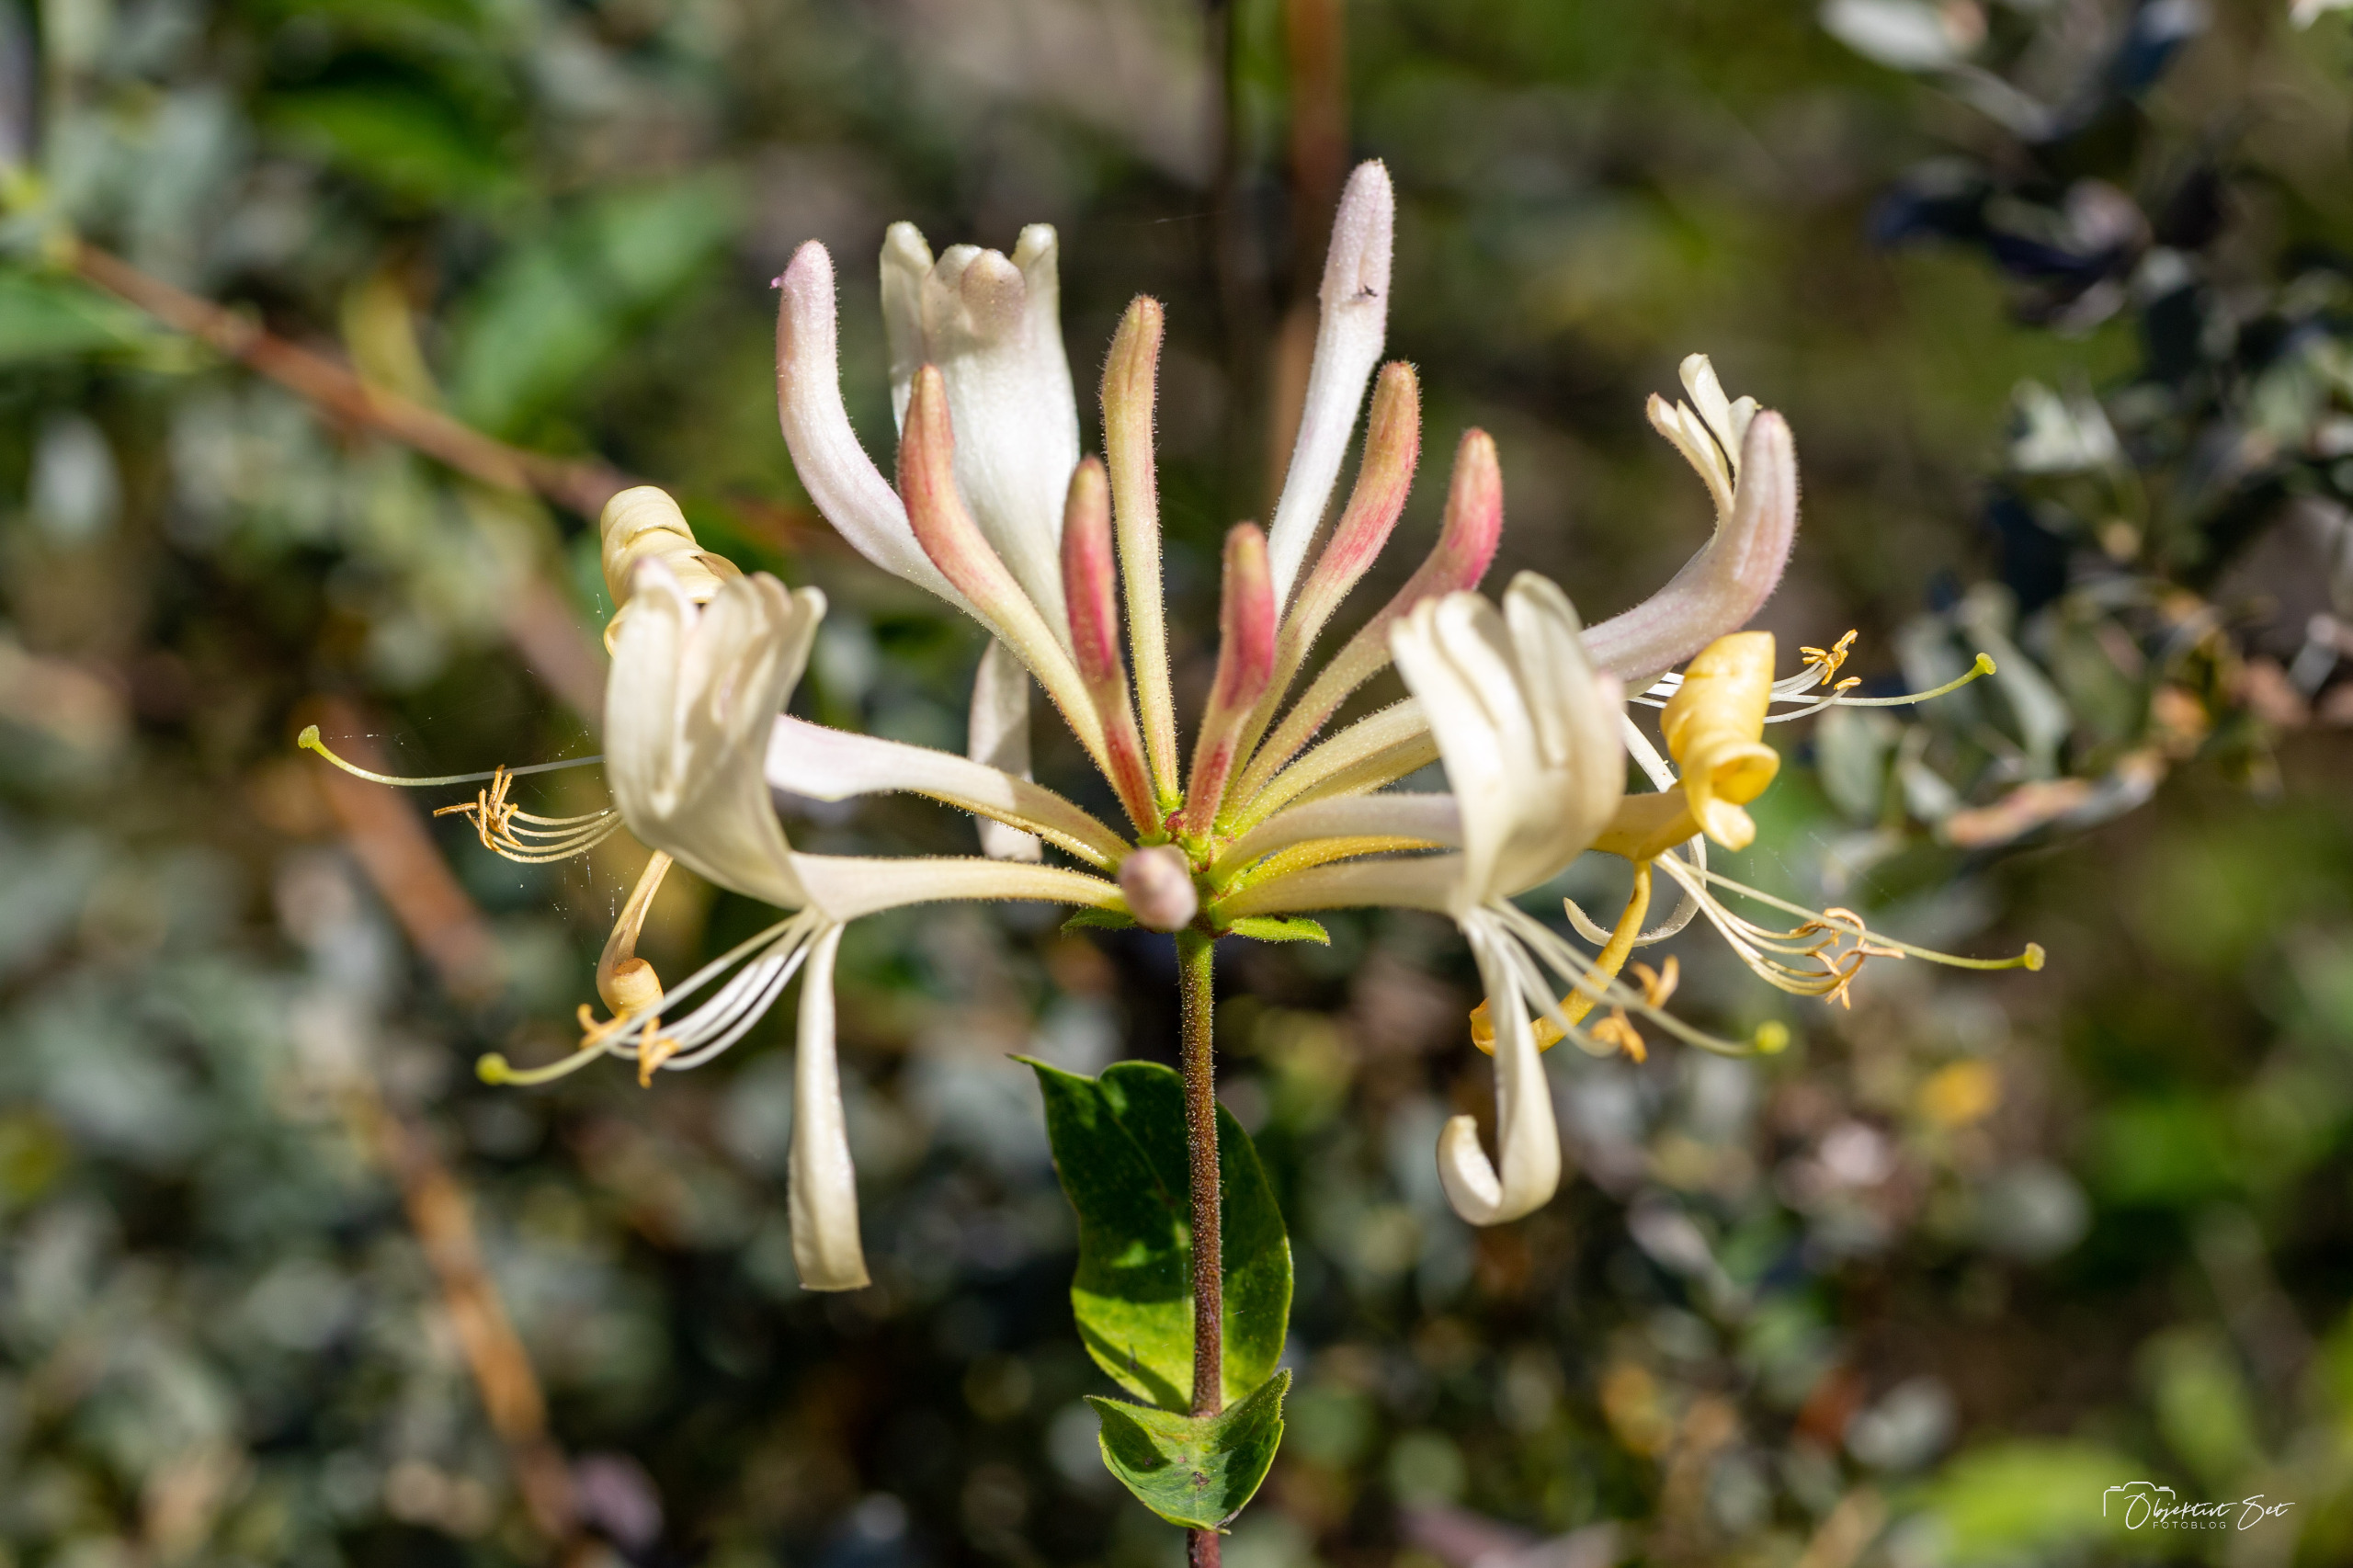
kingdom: Plantae
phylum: Tracheophyta
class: Magnoliopsida
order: Dipsacales
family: Caprifoliaceae
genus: Lonicera
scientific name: Lonicera periclymenum
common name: Almindelig gedeblad
